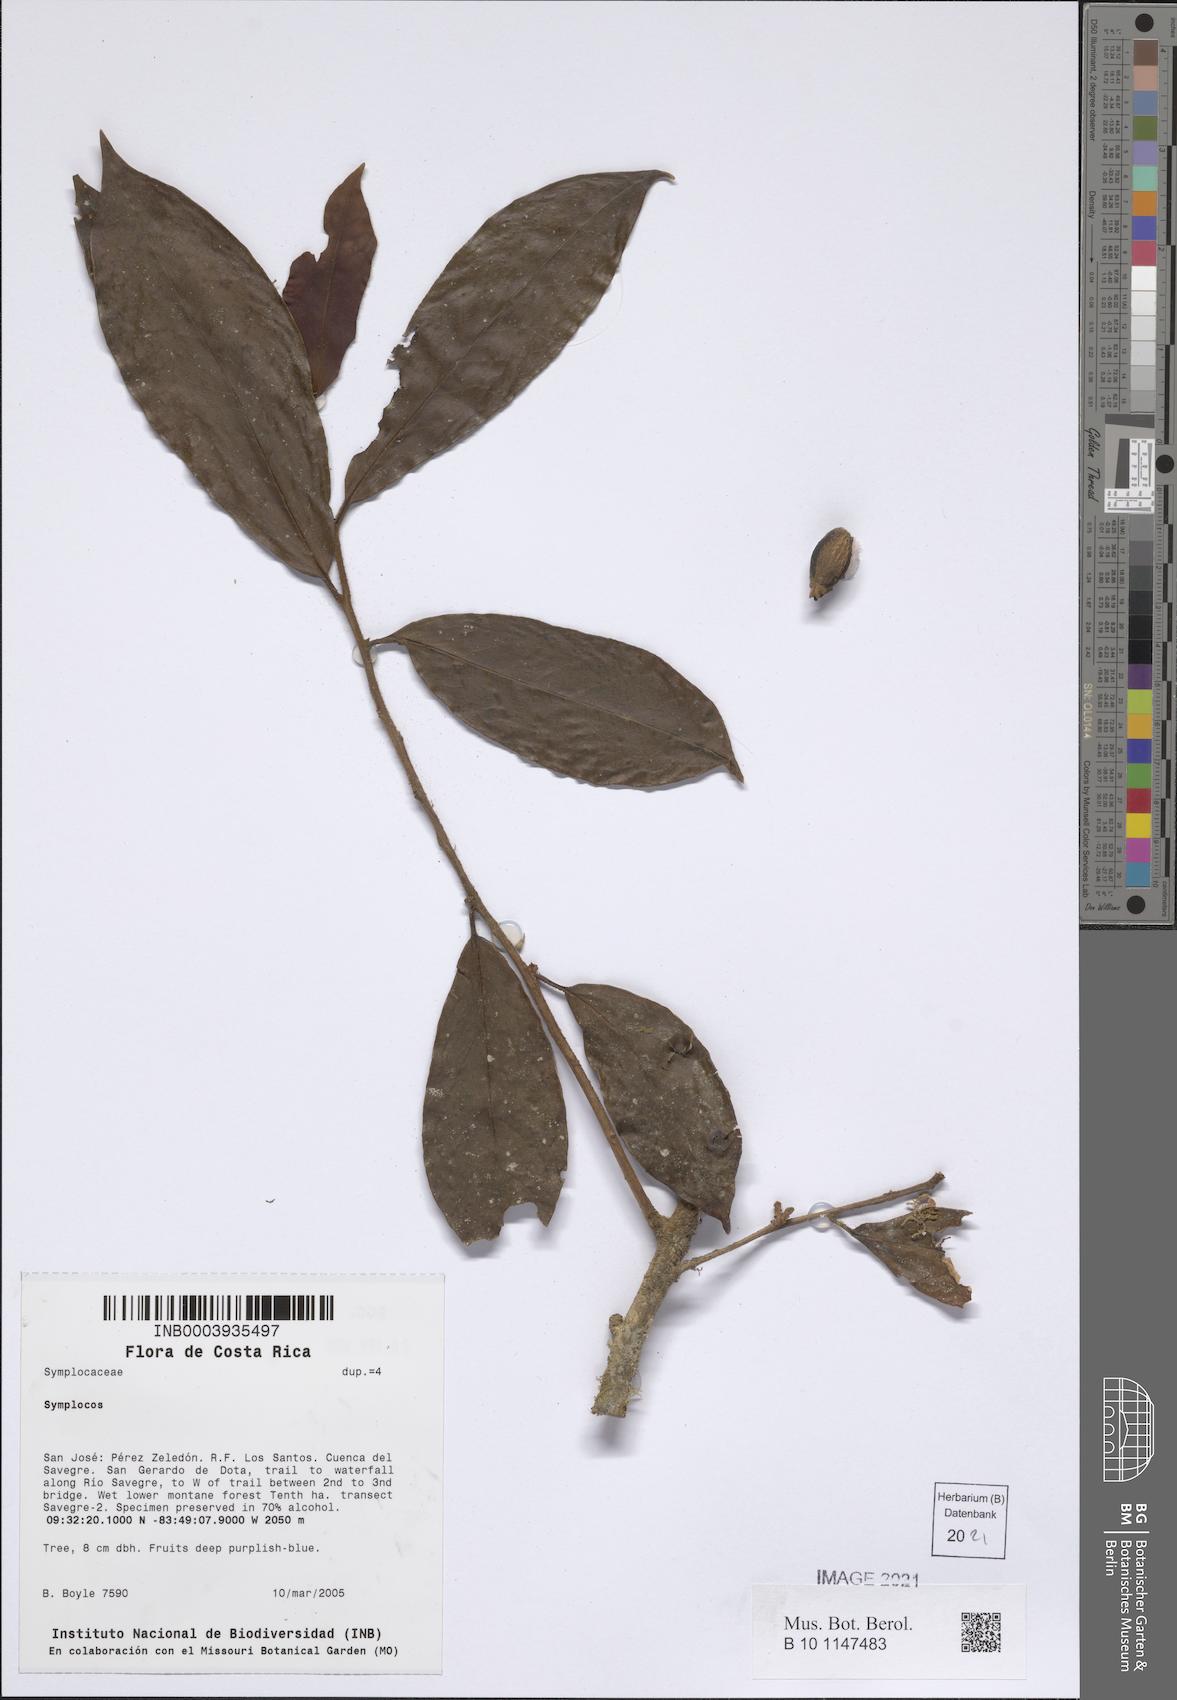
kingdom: Plantae
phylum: Tracheophyta
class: Magnoliopsida
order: Ericales
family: Symplocaceae
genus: Symplocos
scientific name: Symplocos
